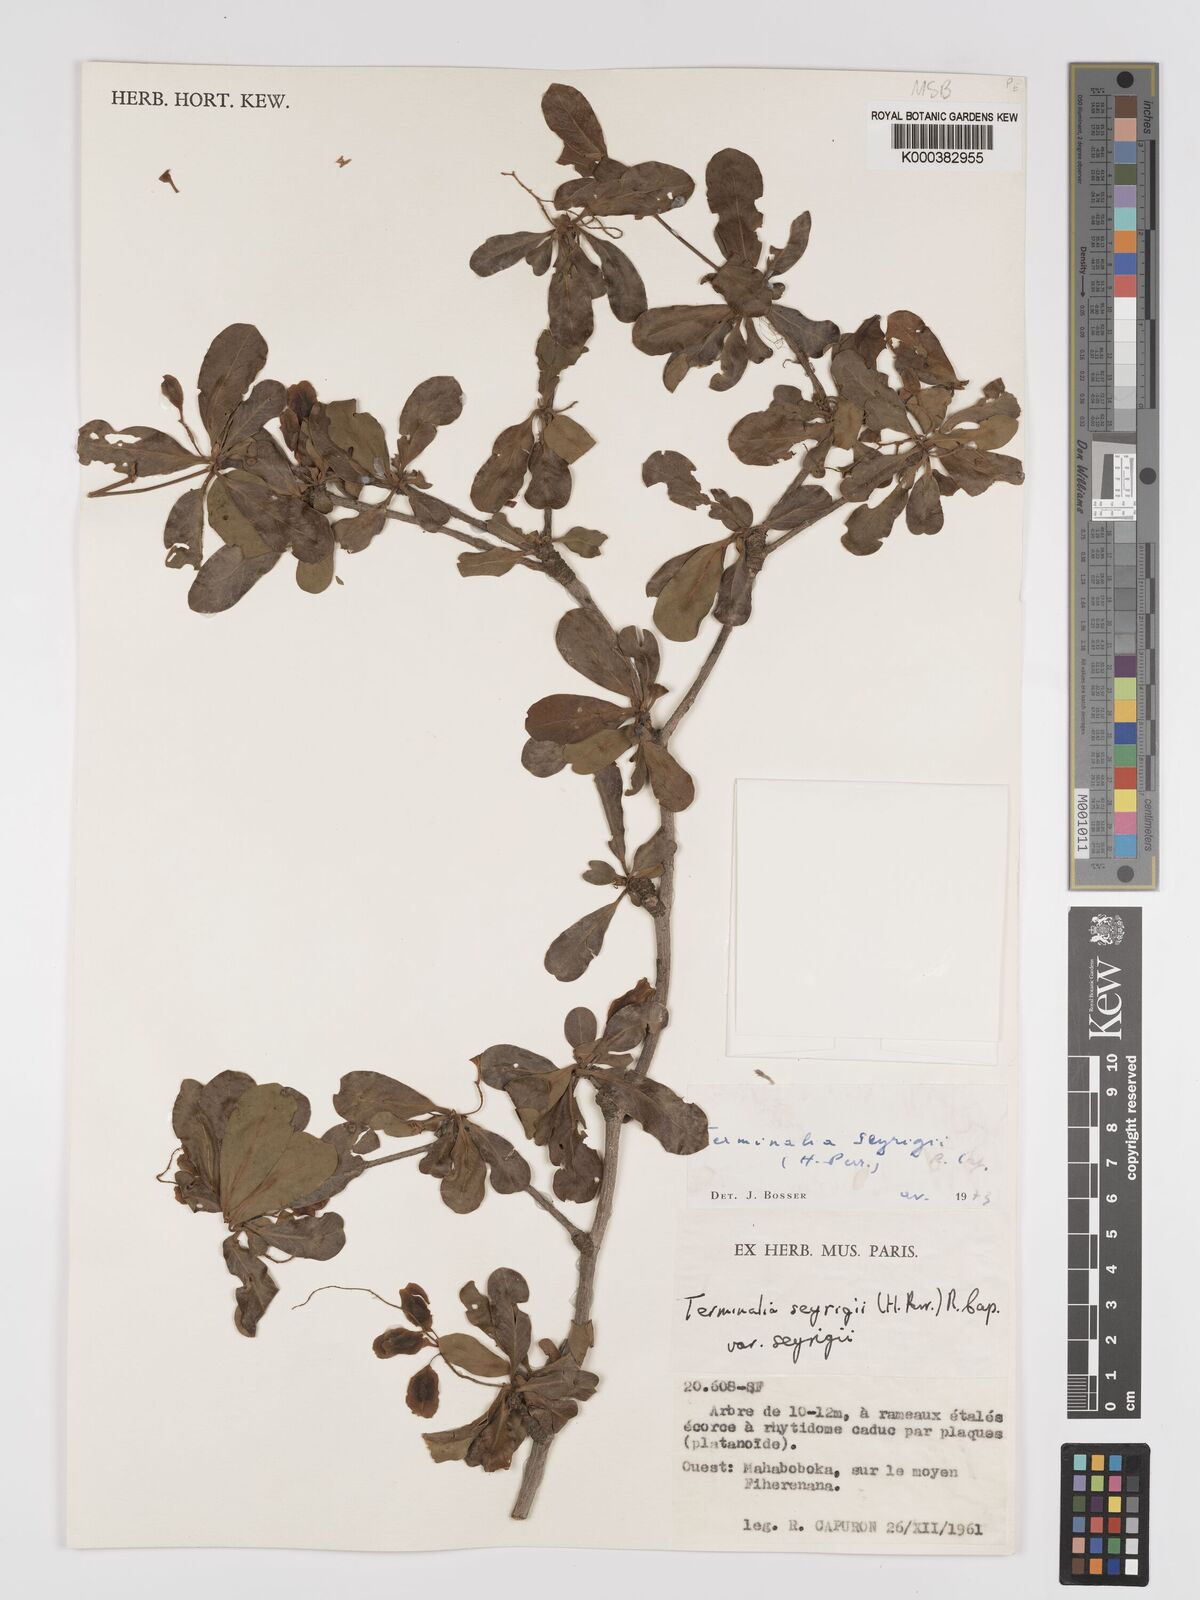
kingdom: Plantae
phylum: Tracheophyta
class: Magnoliopsida
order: Myrtales
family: Combretaceae
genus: Terminalia
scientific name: Terminalia
